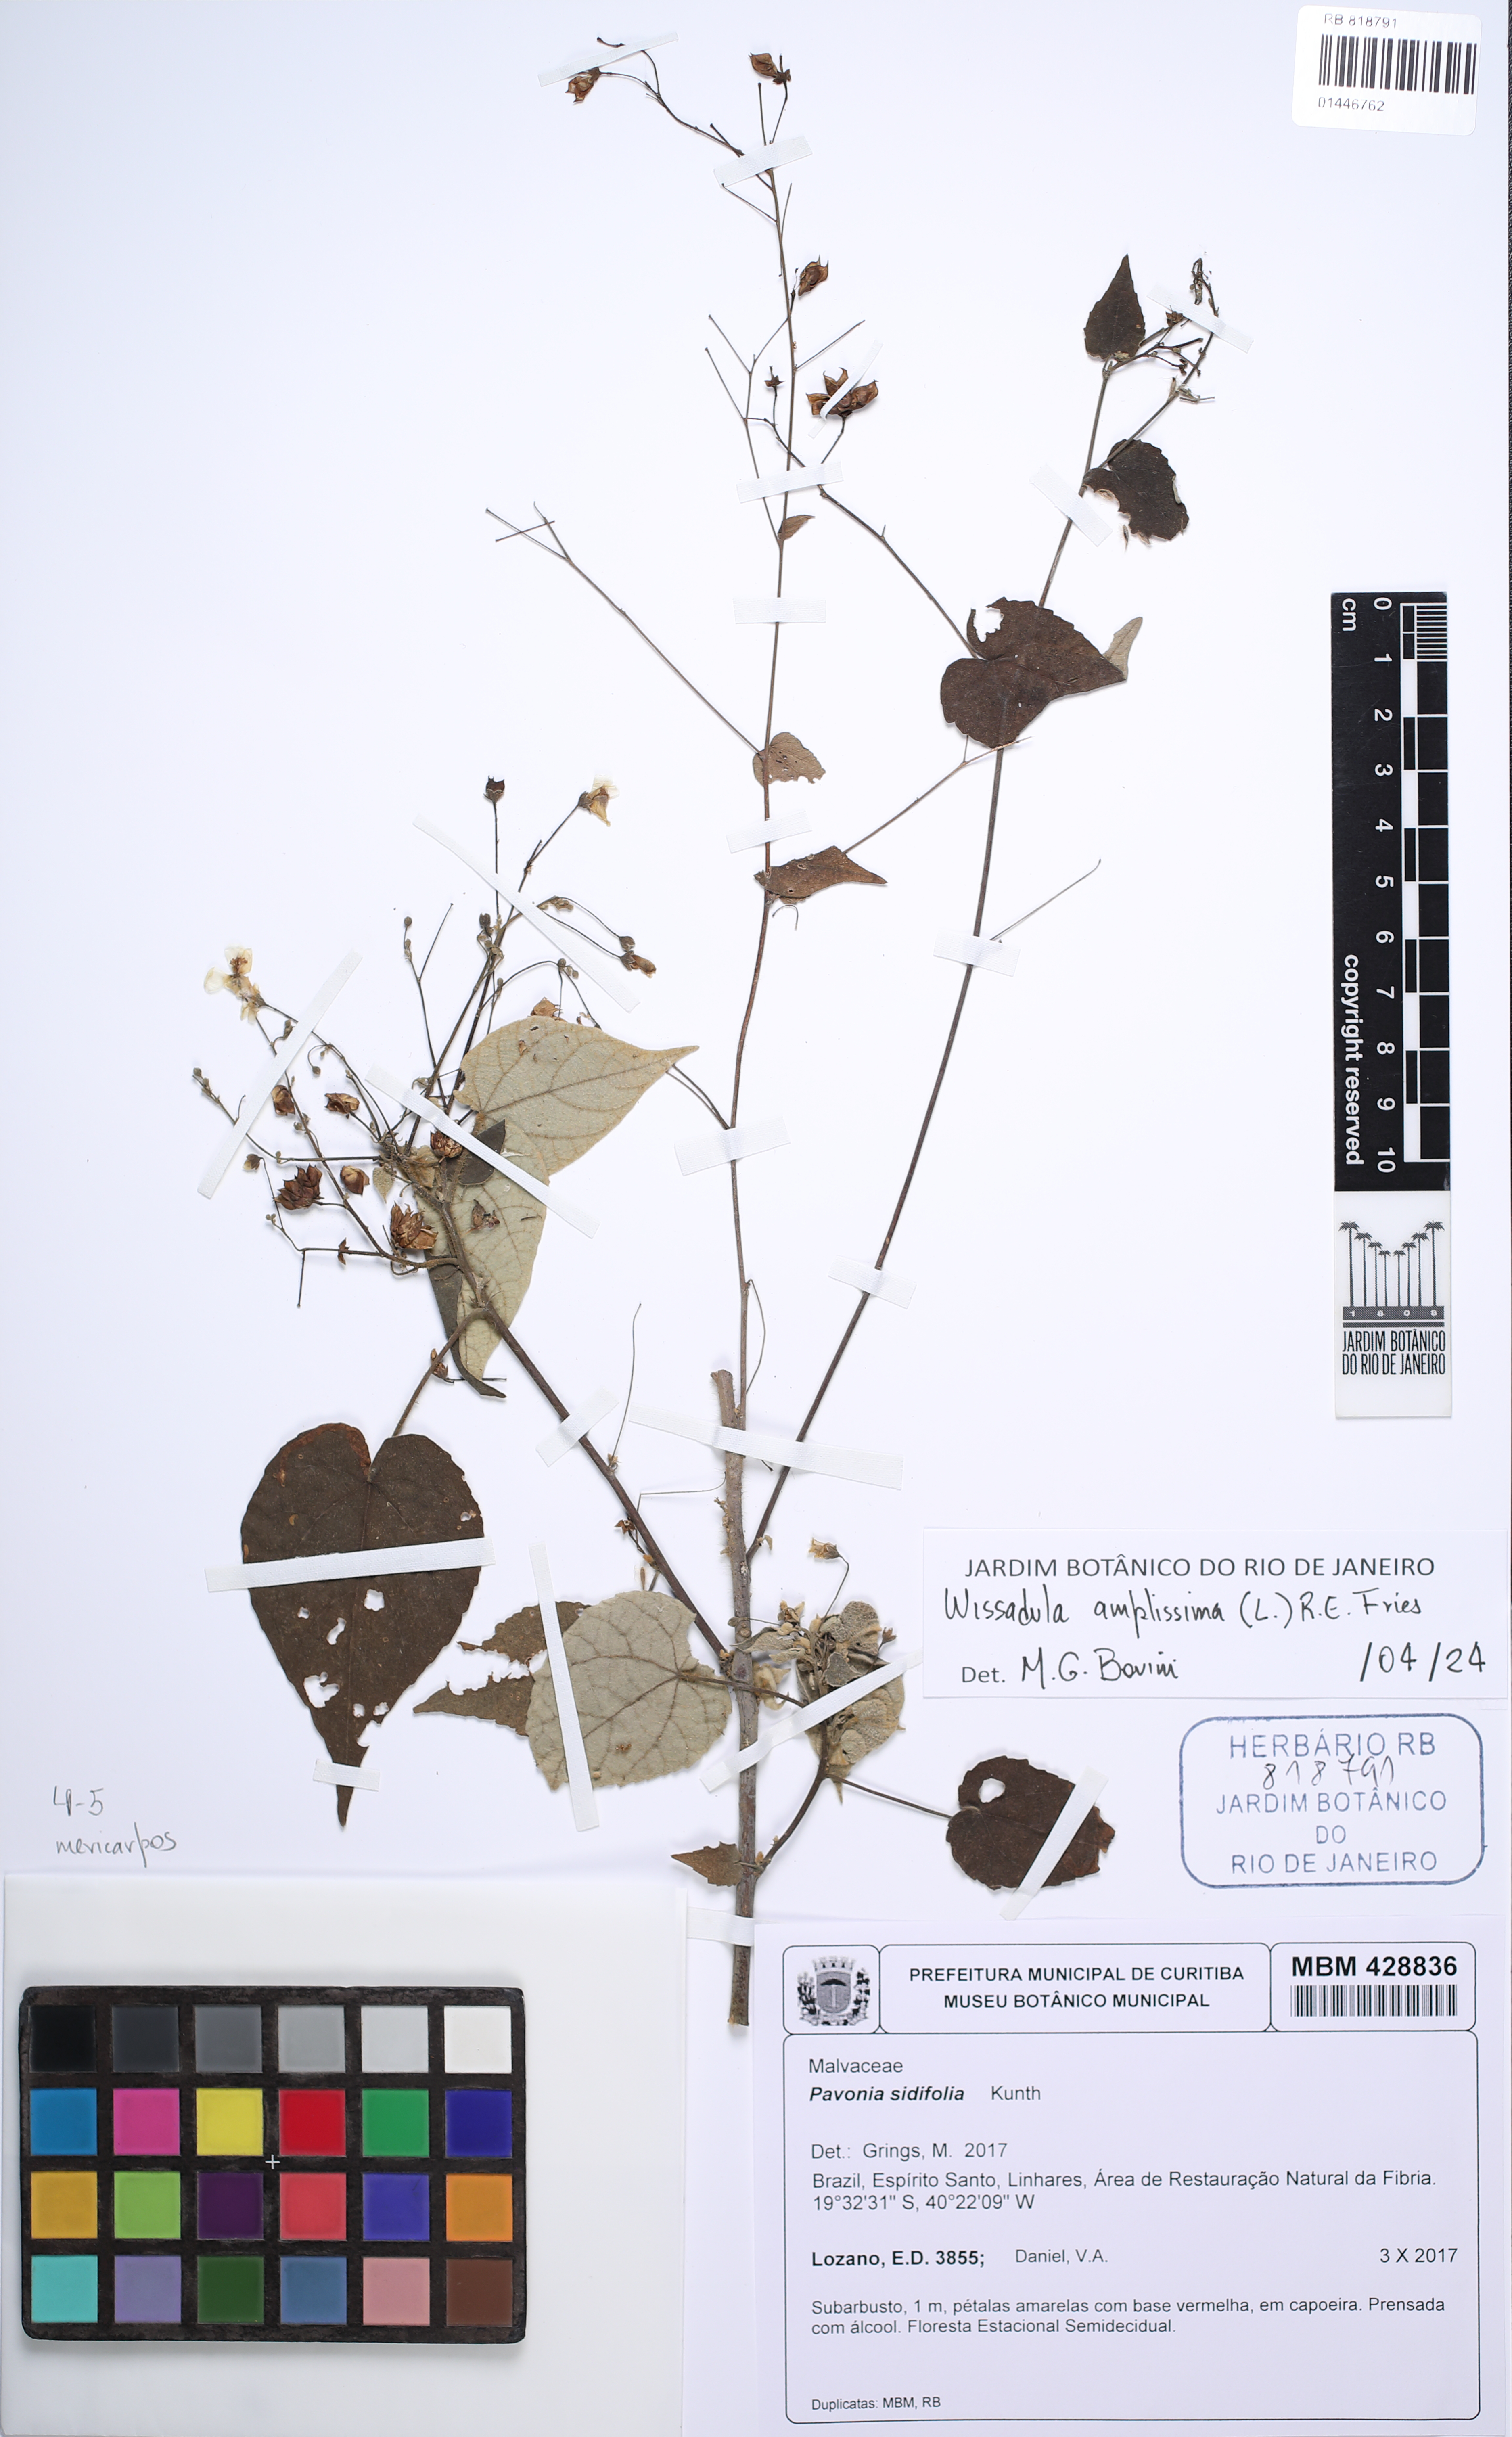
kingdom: Plantae
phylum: Tracheophyta
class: Magnoliopsida
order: Malvales
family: Malvaceae
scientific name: Malvaceae
